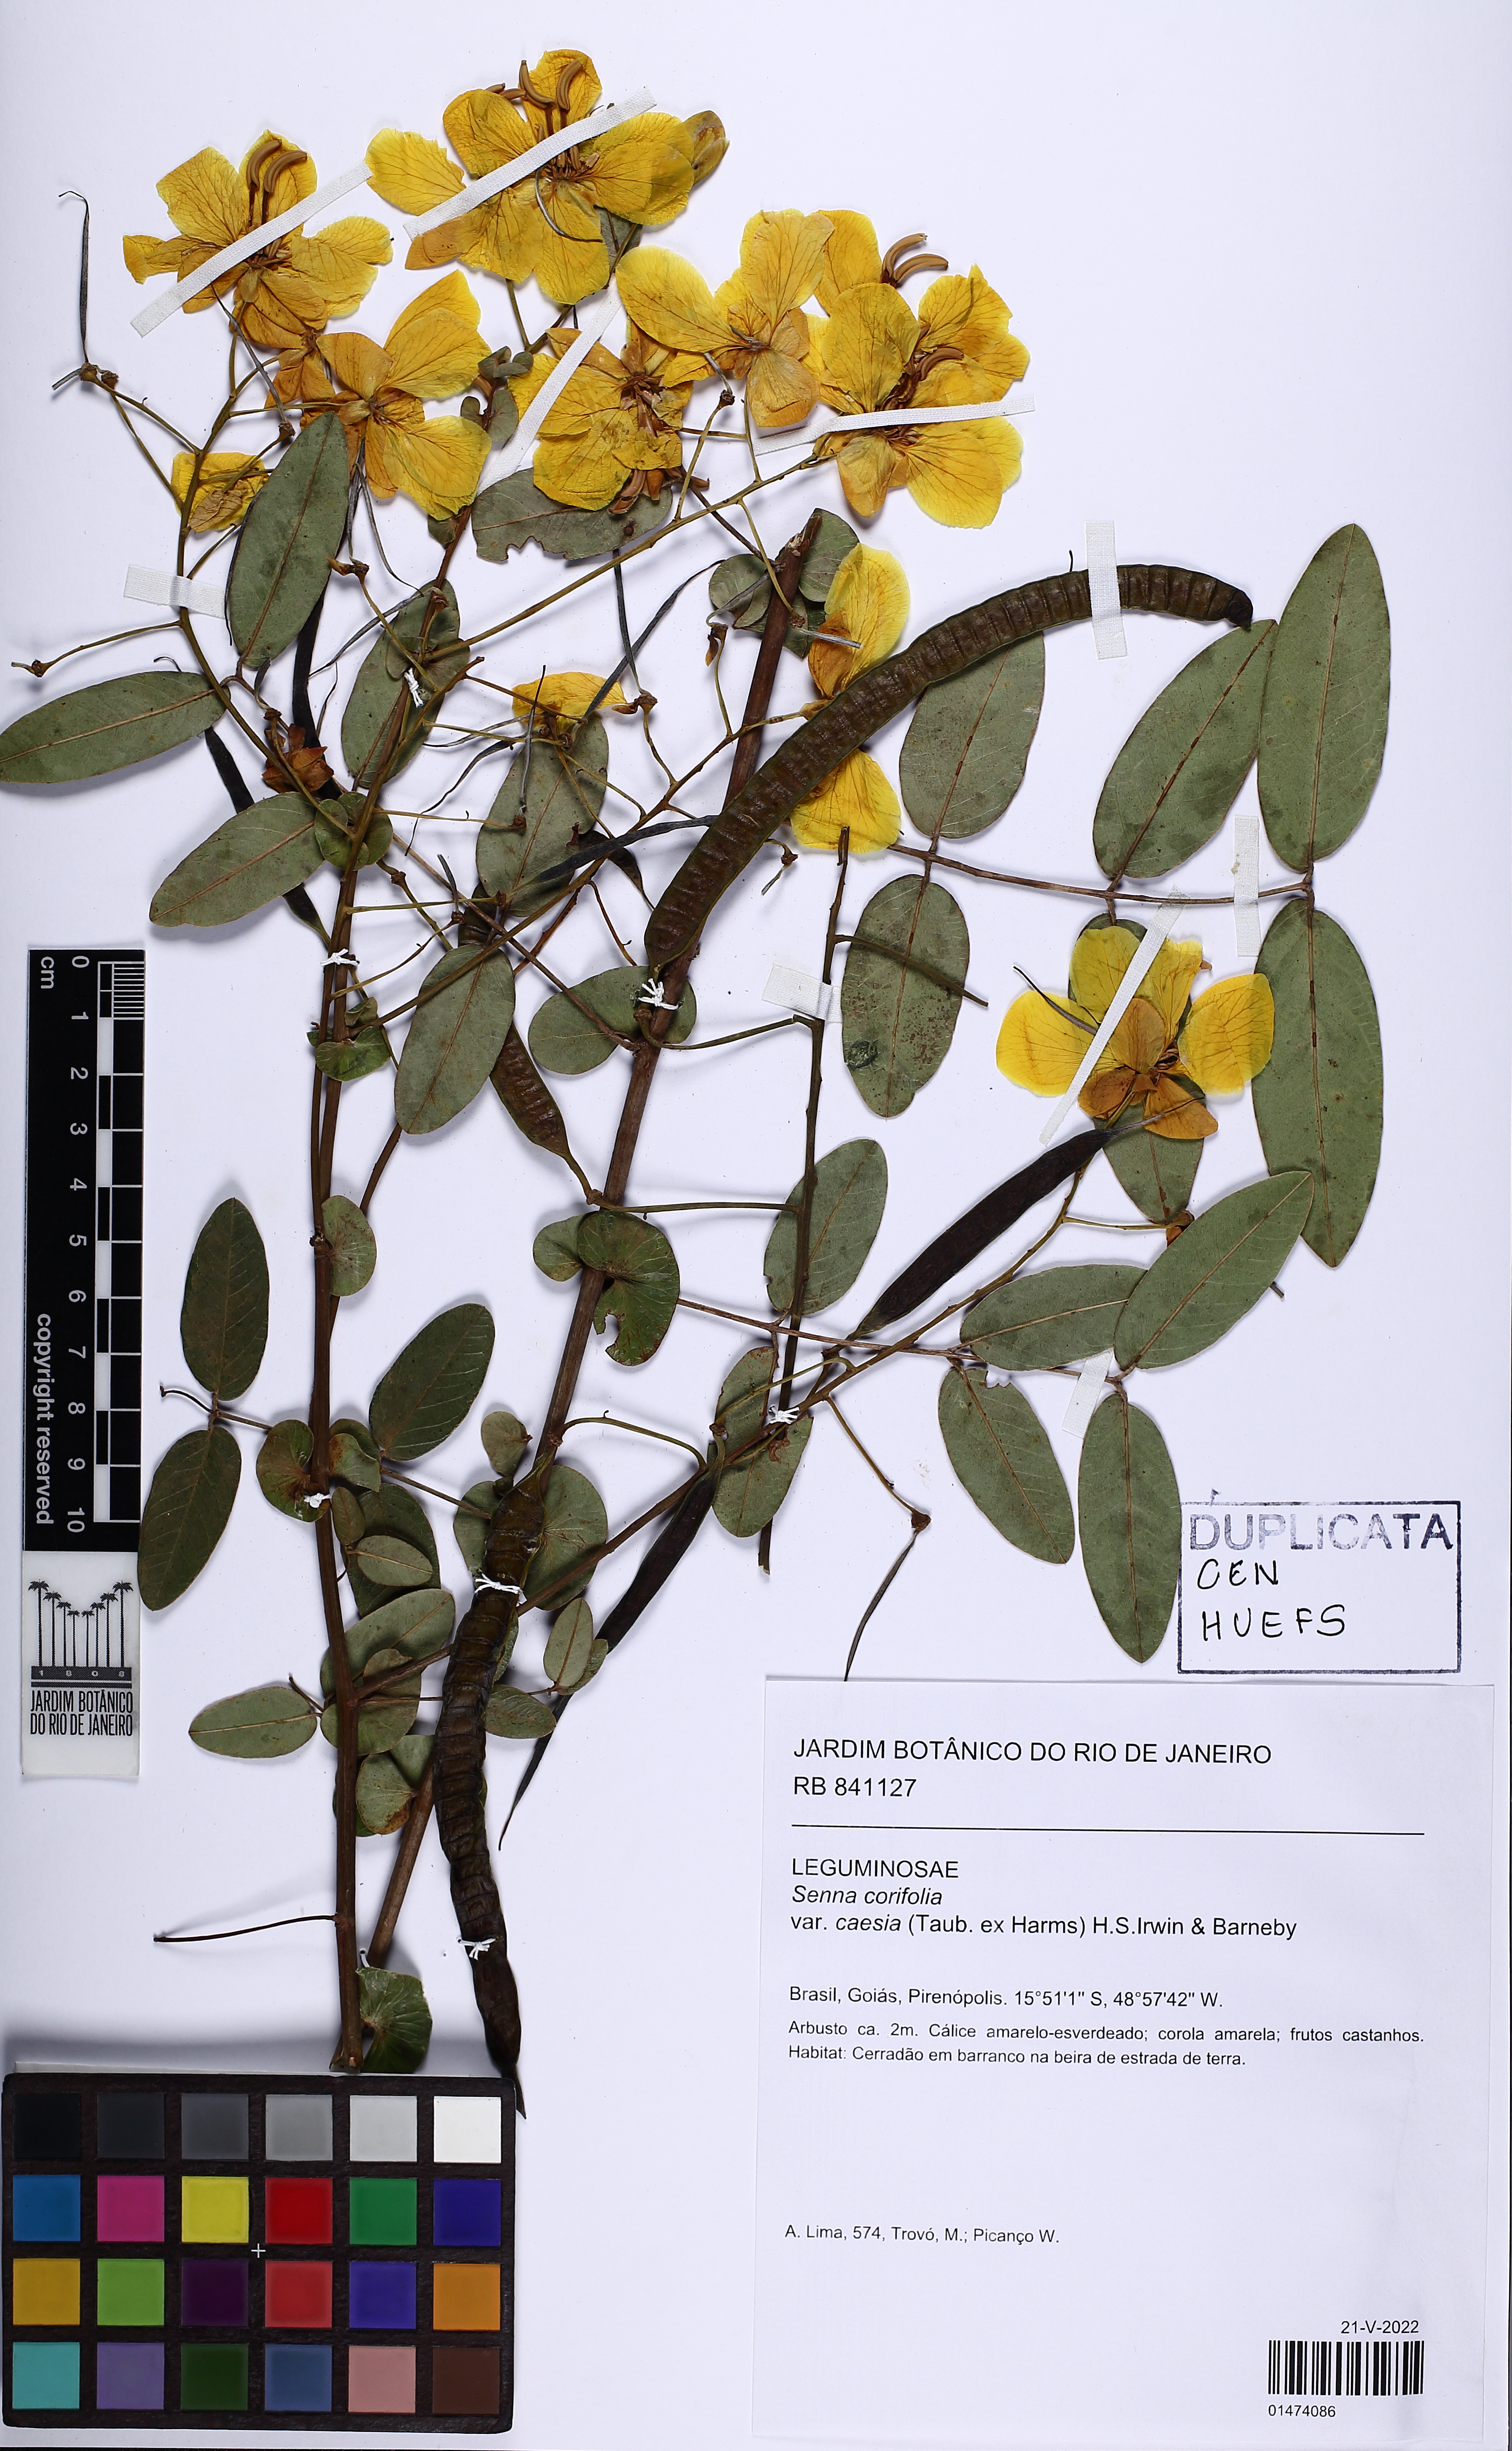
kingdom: Plantae
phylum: Tracheophyta
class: Magnoliopsida
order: Fabales
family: Fabaceae
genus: Senna
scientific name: Senna corifolia
